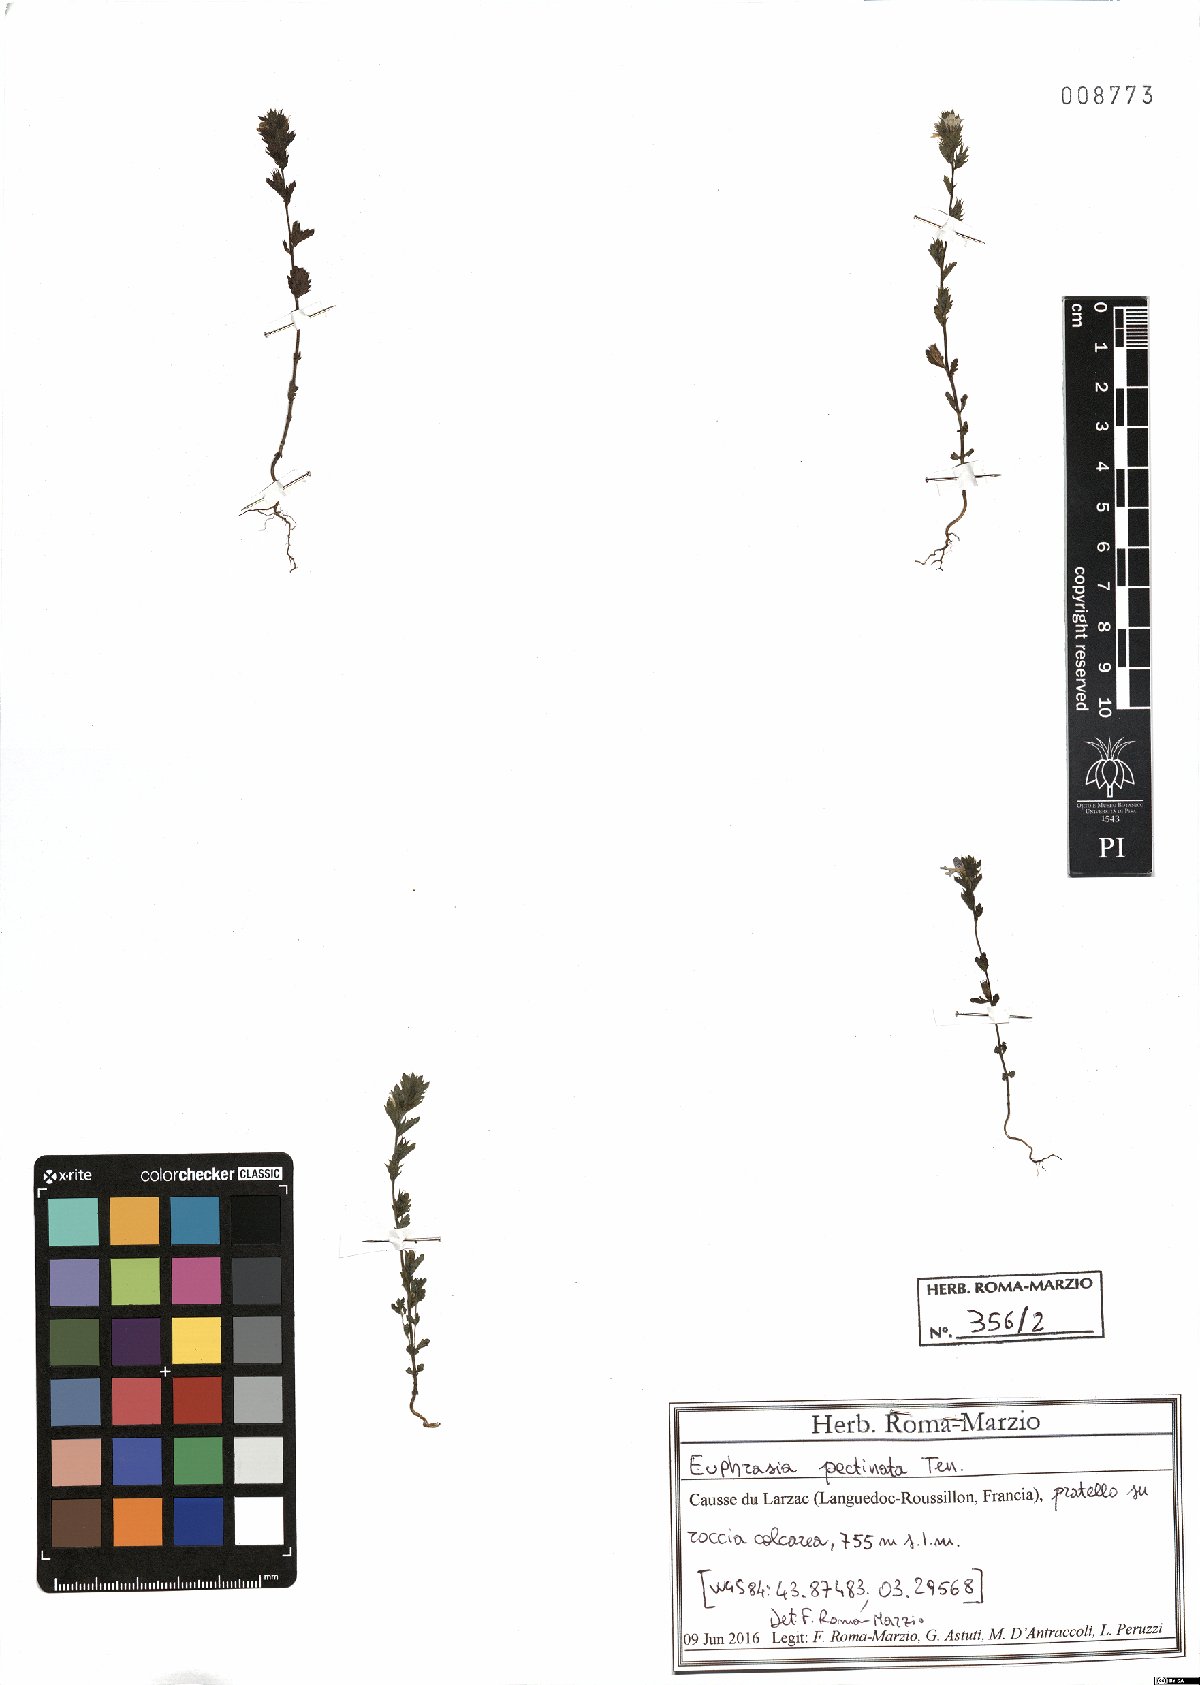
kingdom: Plantae
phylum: Tracheophyta
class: Magnoliopsida
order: Lamiales
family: Orobanchaceae
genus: Euphrasia
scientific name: Euphrasia pectinata
